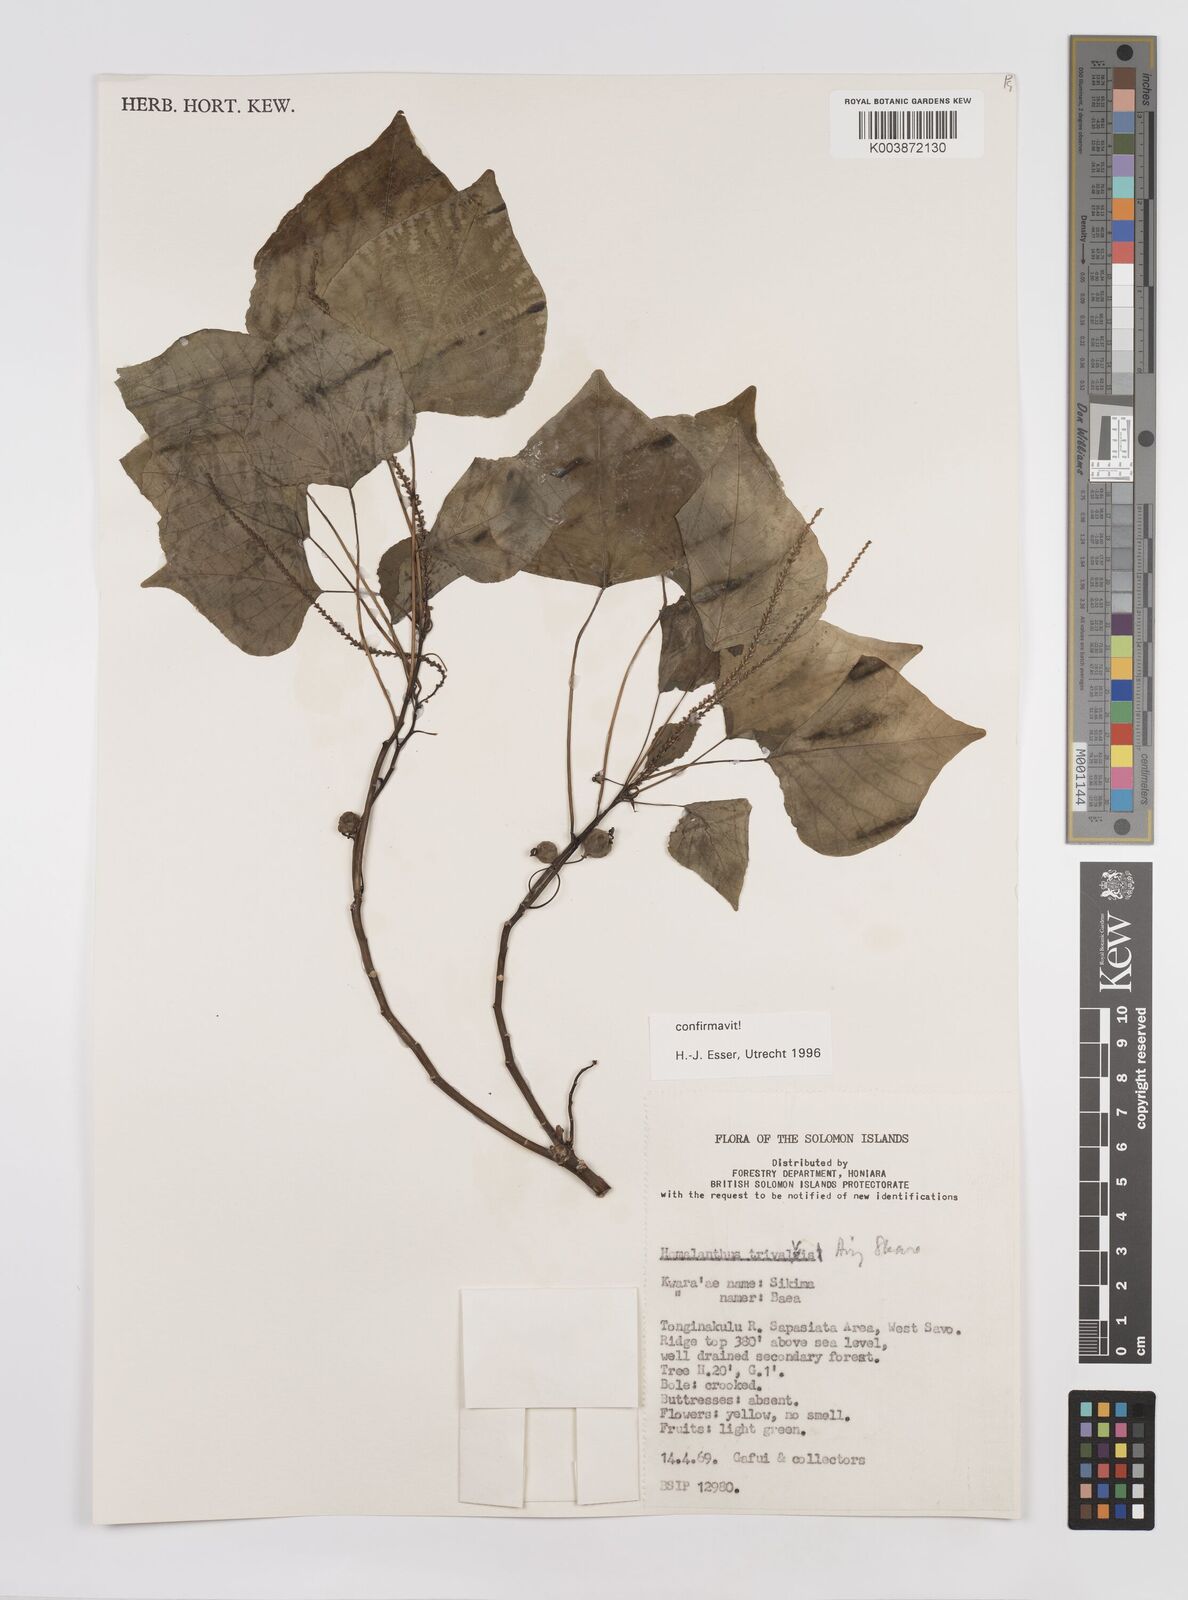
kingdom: Plantae
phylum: Tracheophyta
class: Magnoliopsida
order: Malpighiales
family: Euphorbiaceae
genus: Homalanthus
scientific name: Homalanthus trivalvis
